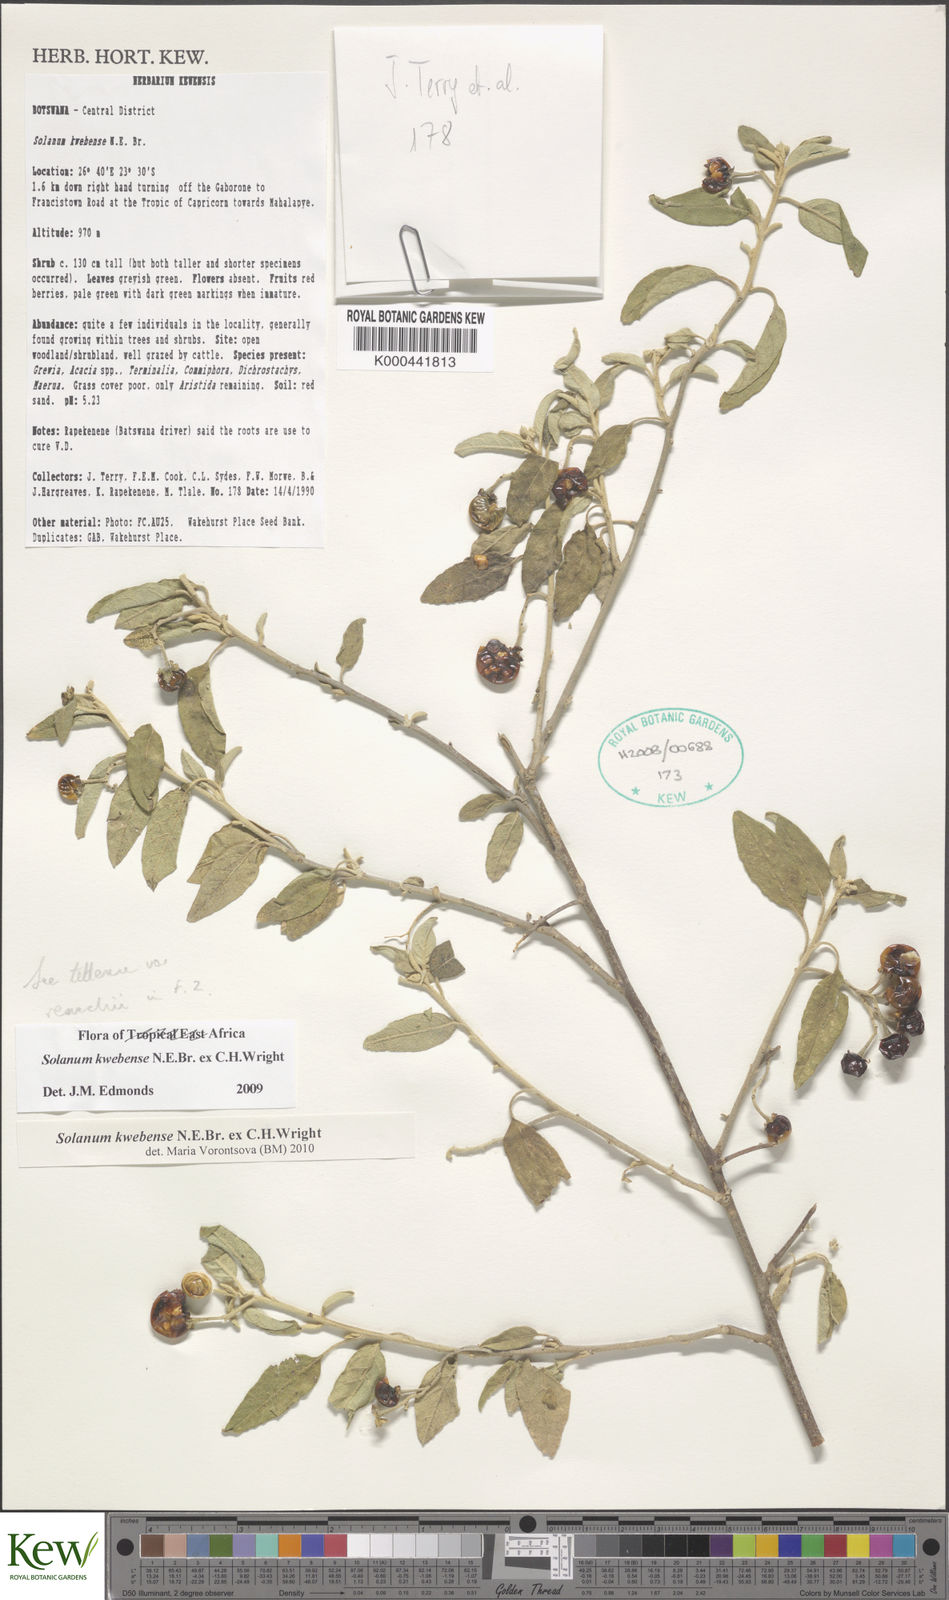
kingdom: Plantae
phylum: Tracheophyta
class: Magnoliopsida
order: Solanales
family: Solanaceae
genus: Solanum
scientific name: Solanum tettense
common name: Mozambique bitter apple
